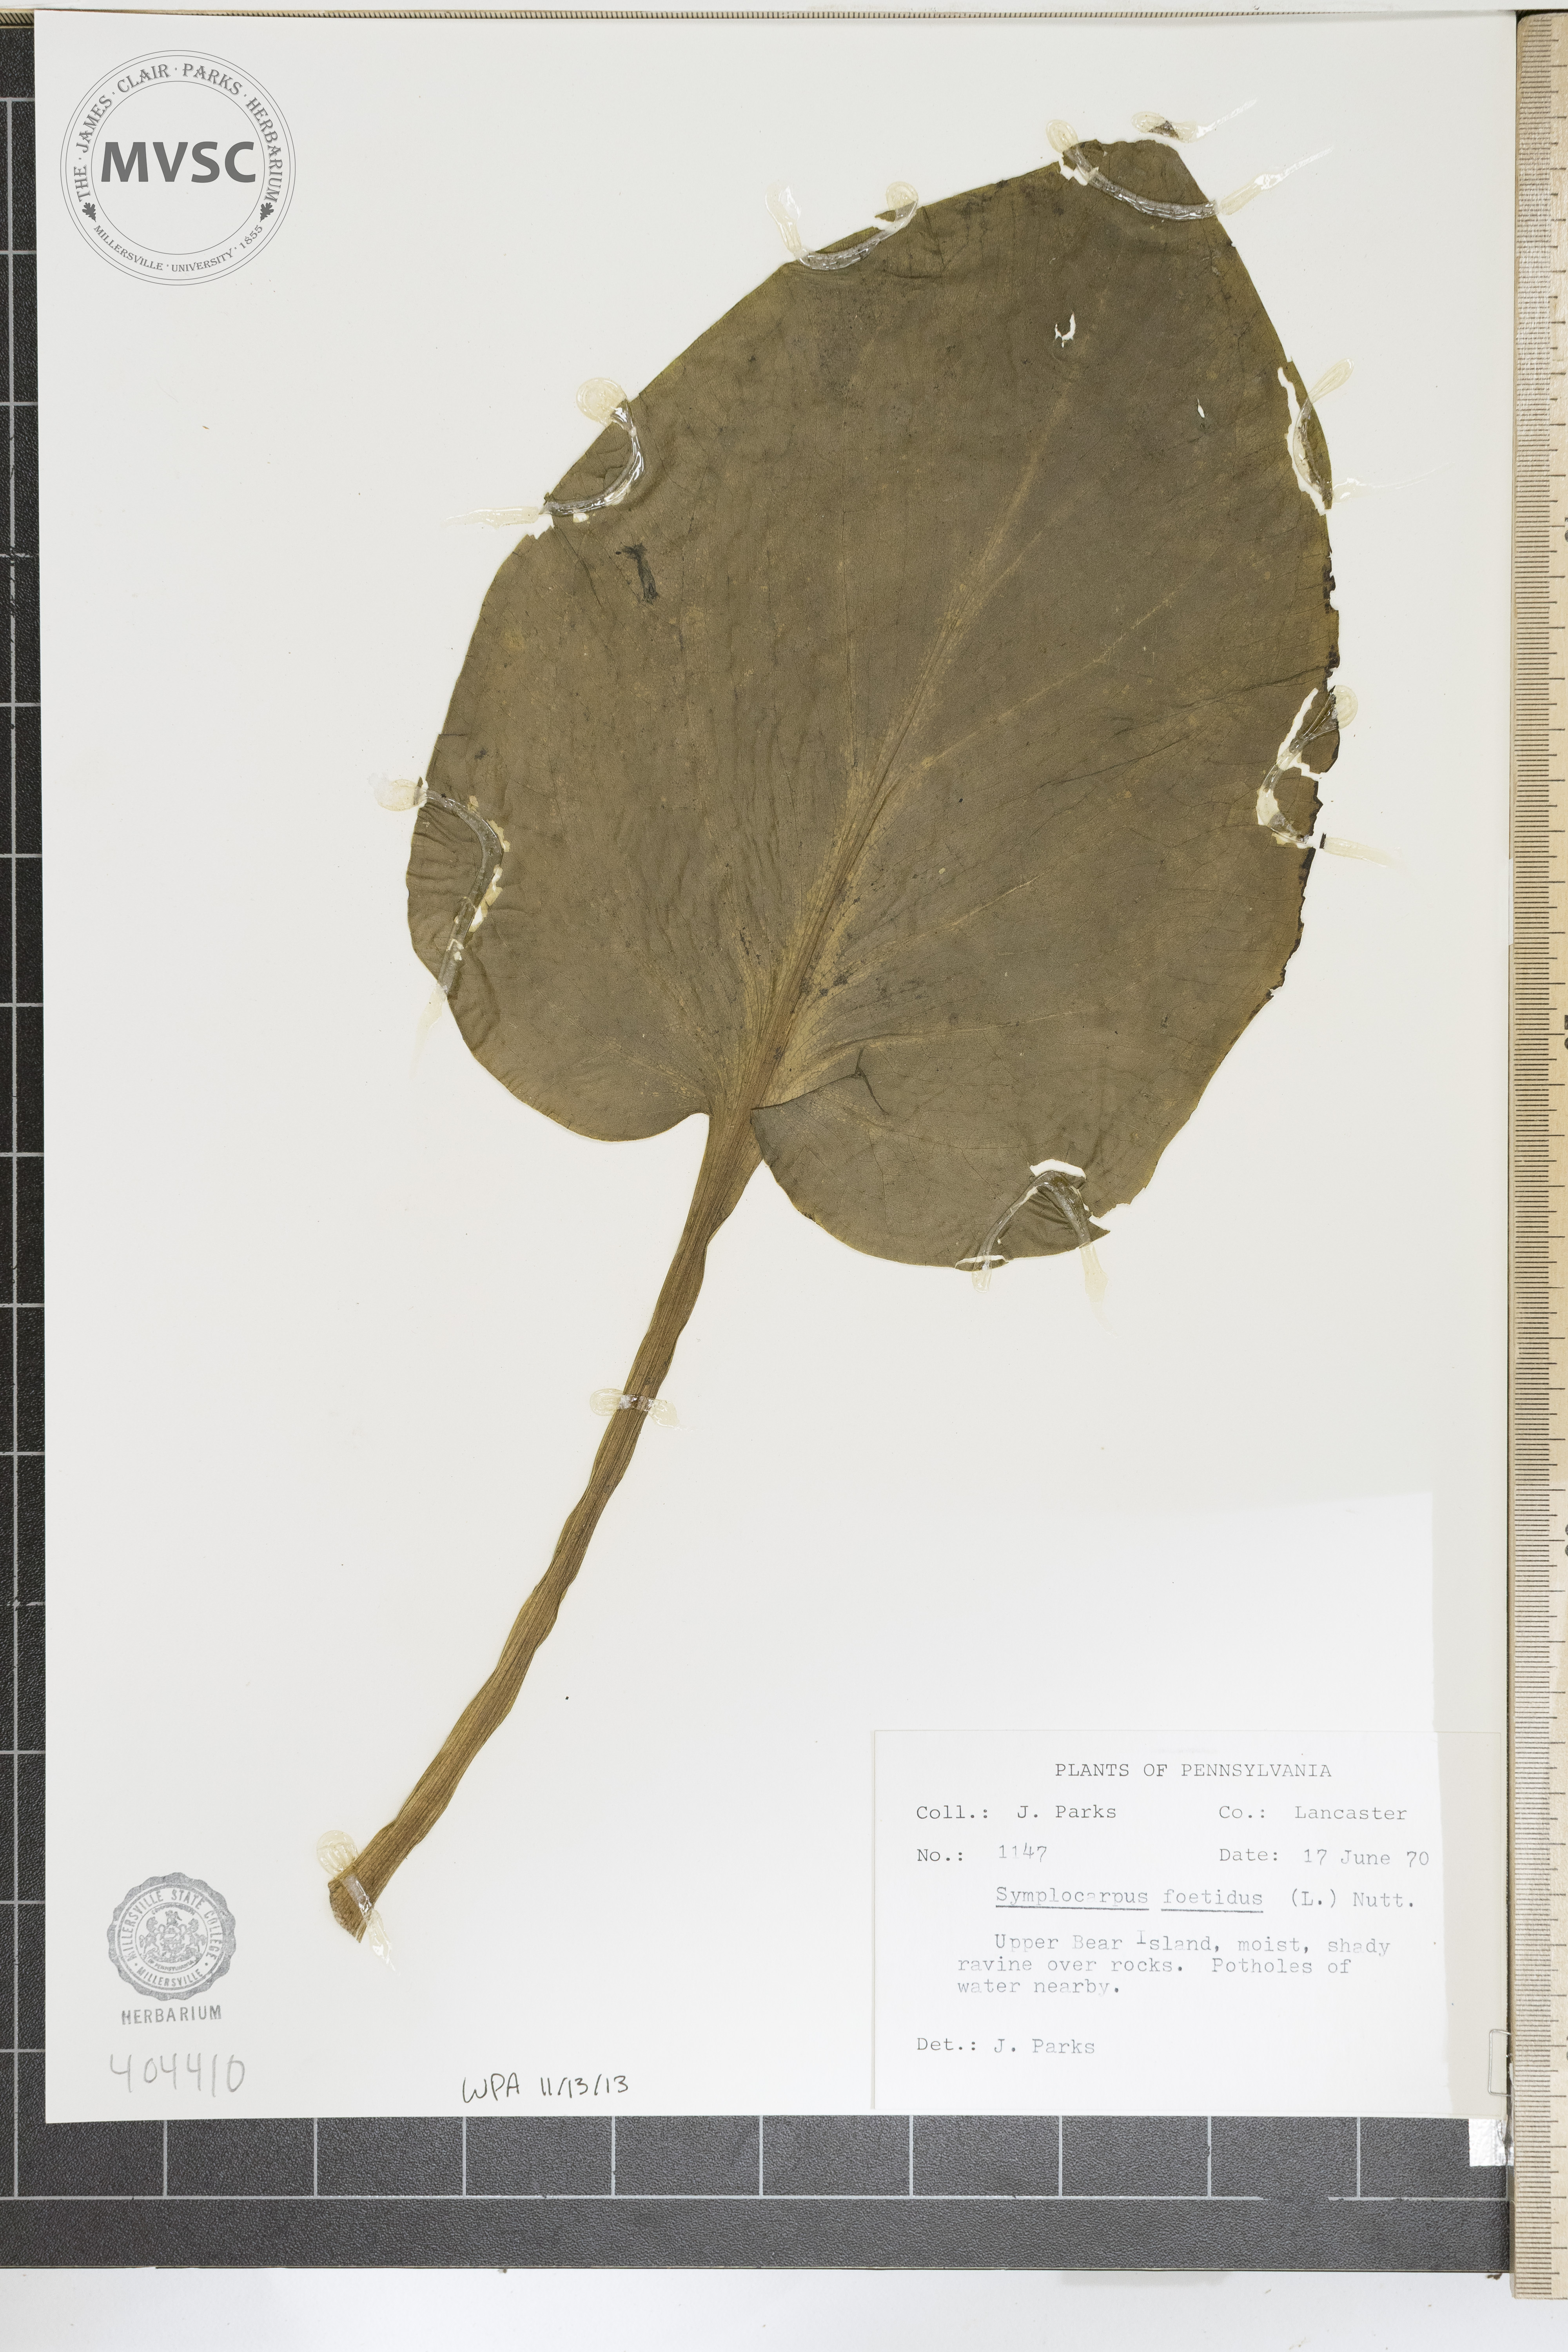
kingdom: Plantae
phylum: Tracheophyta
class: Liliopsida
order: Alismatales
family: Araceae
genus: Symplocarpus
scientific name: Symplocarpus foetidus
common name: Eastern skunk cabbage
